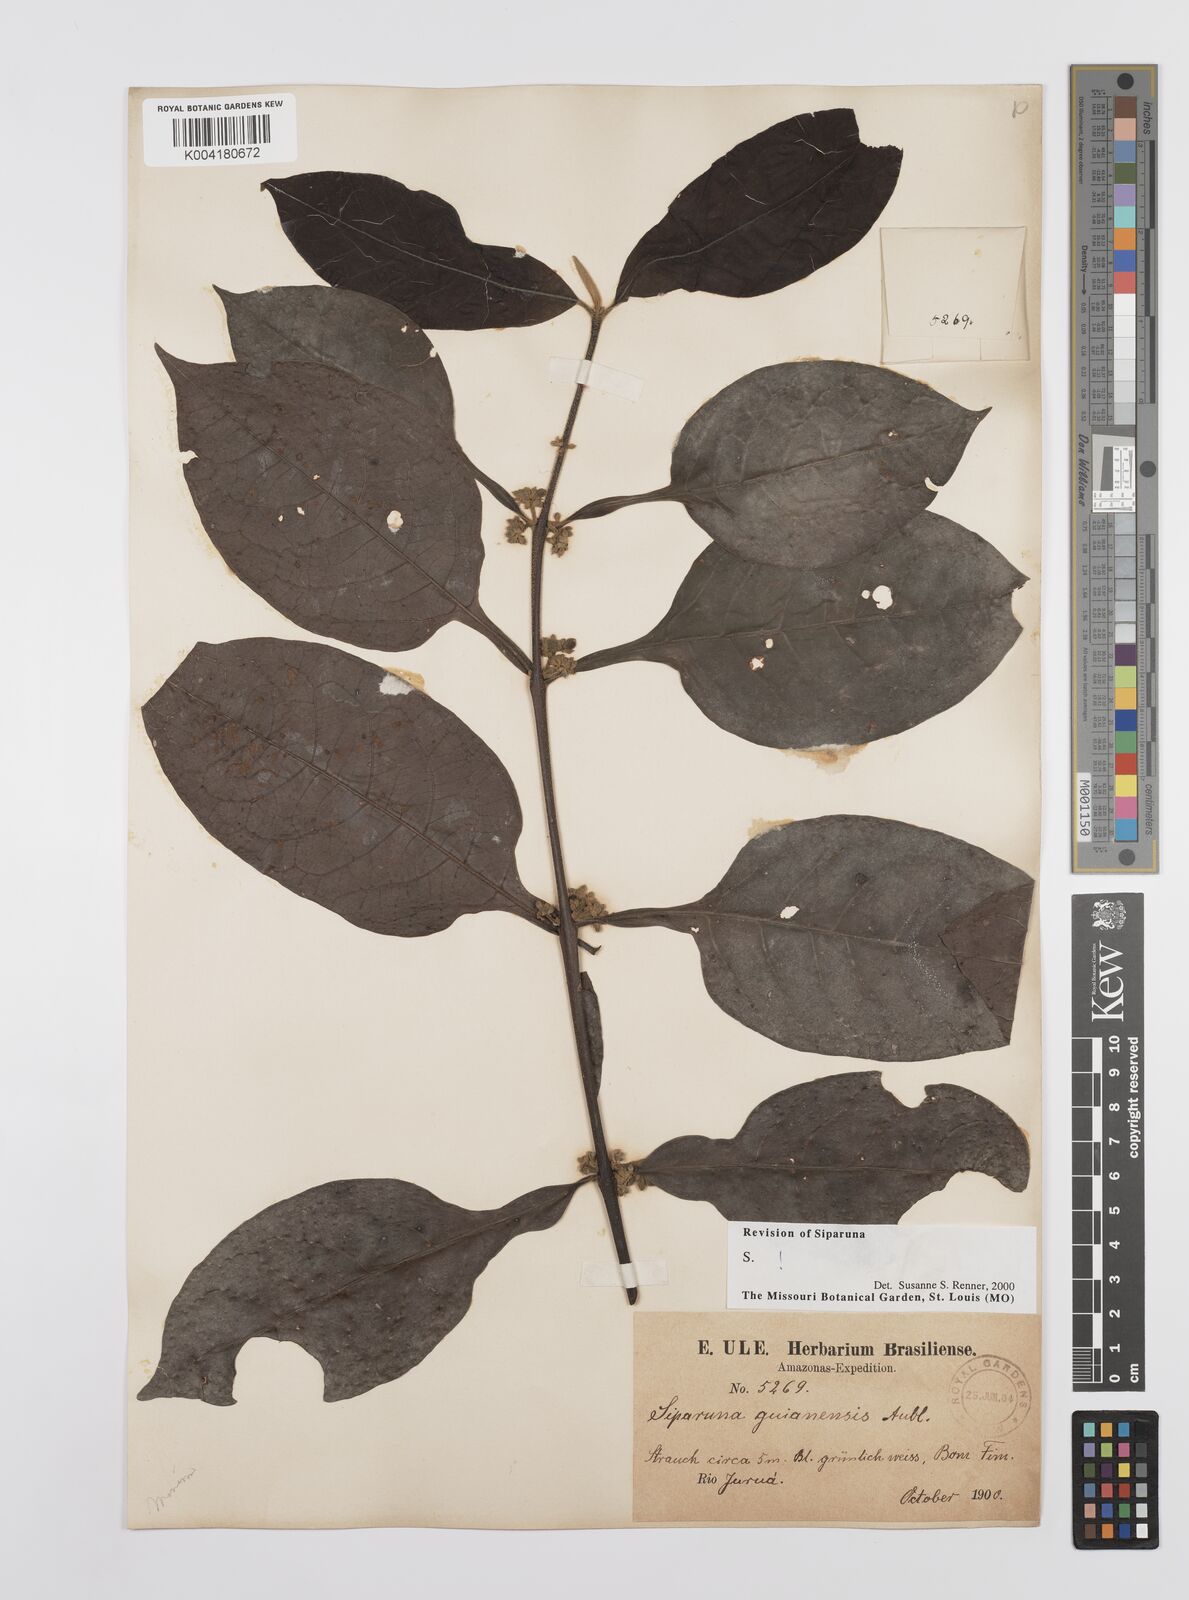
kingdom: Plantae
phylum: Tracheophyta
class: Magnoliopsida
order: Laurales
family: Siparunaceae
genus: Siparuna
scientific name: Siparuna guianensis
